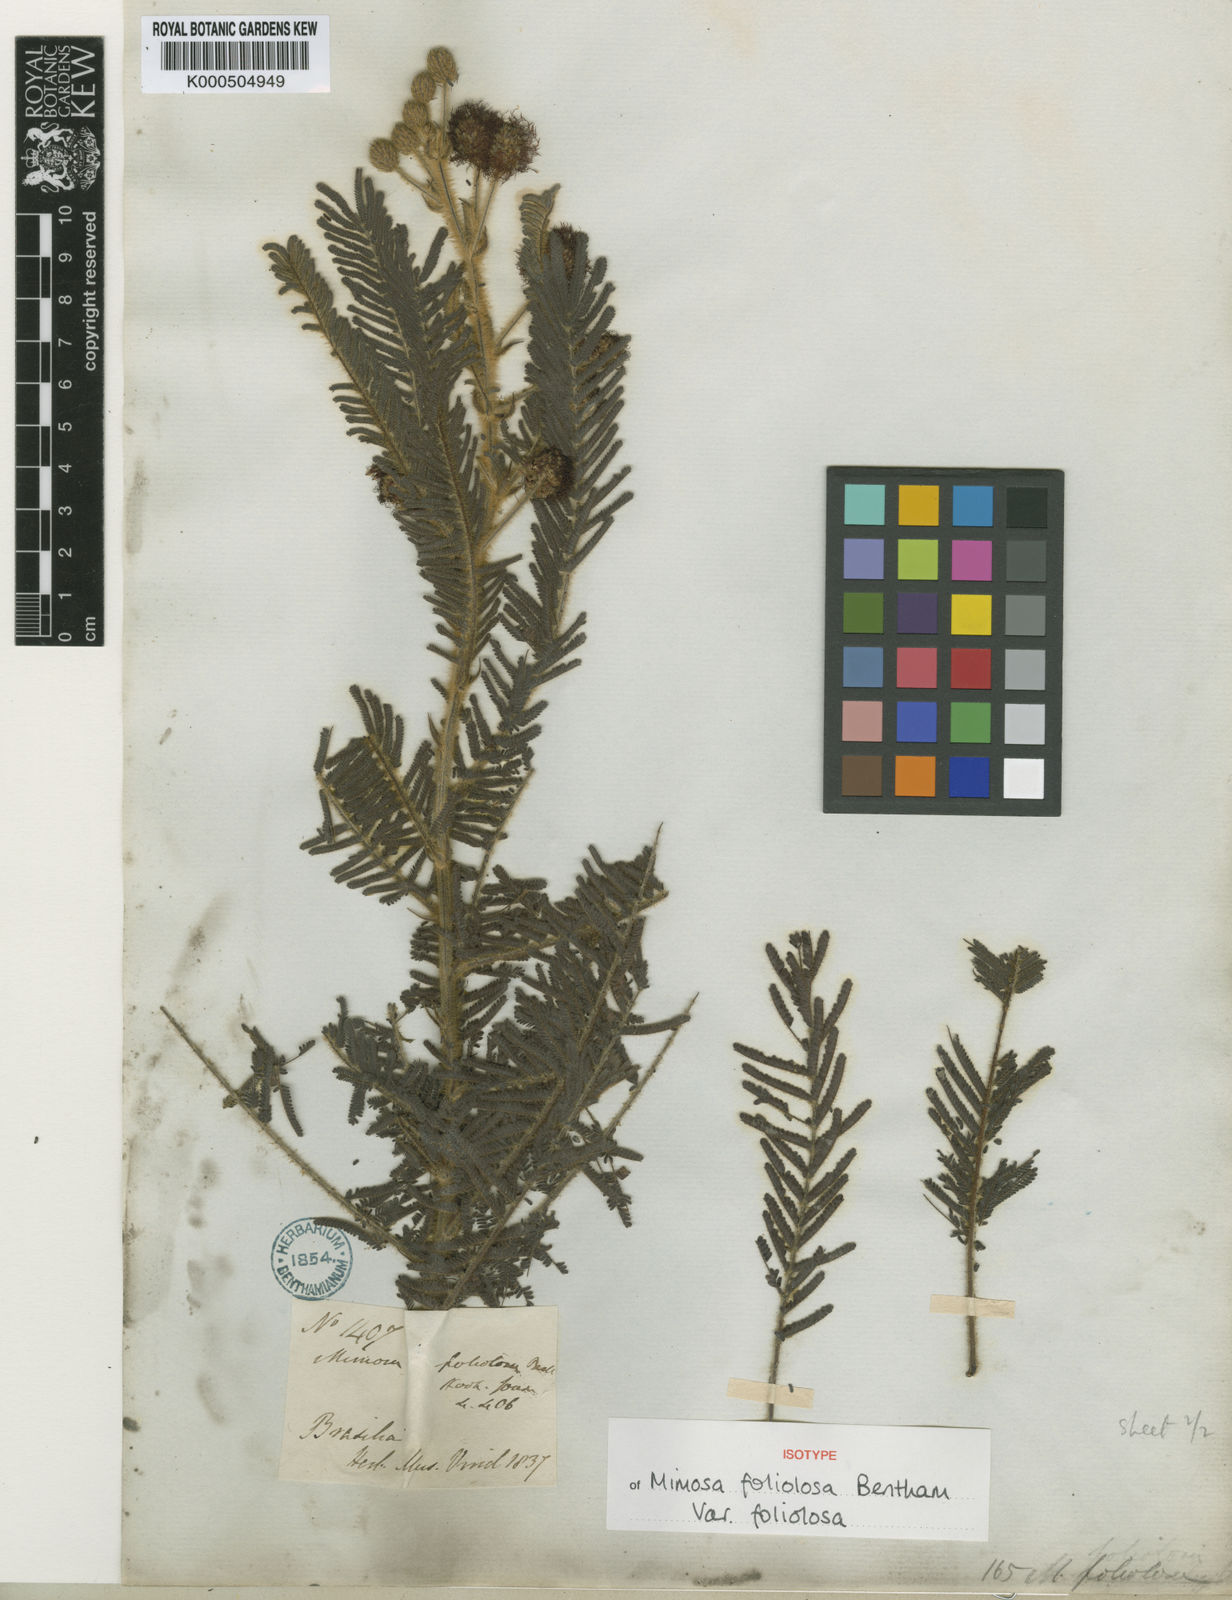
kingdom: Plantae
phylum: Tracheophyta
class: Magnoliopsida
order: Fabales
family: Fabaceae
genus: Mimosa
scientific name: Mimosa
